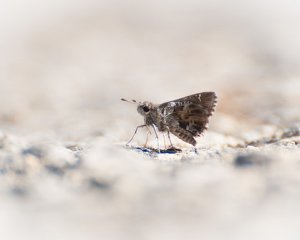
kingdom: Animalia
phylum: Arthropoda
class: Insecta
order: Lepidoptera
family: Hesperiidae
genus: Mastor
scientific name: Mastor nysa
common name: Nysa Roadside-Skipper
